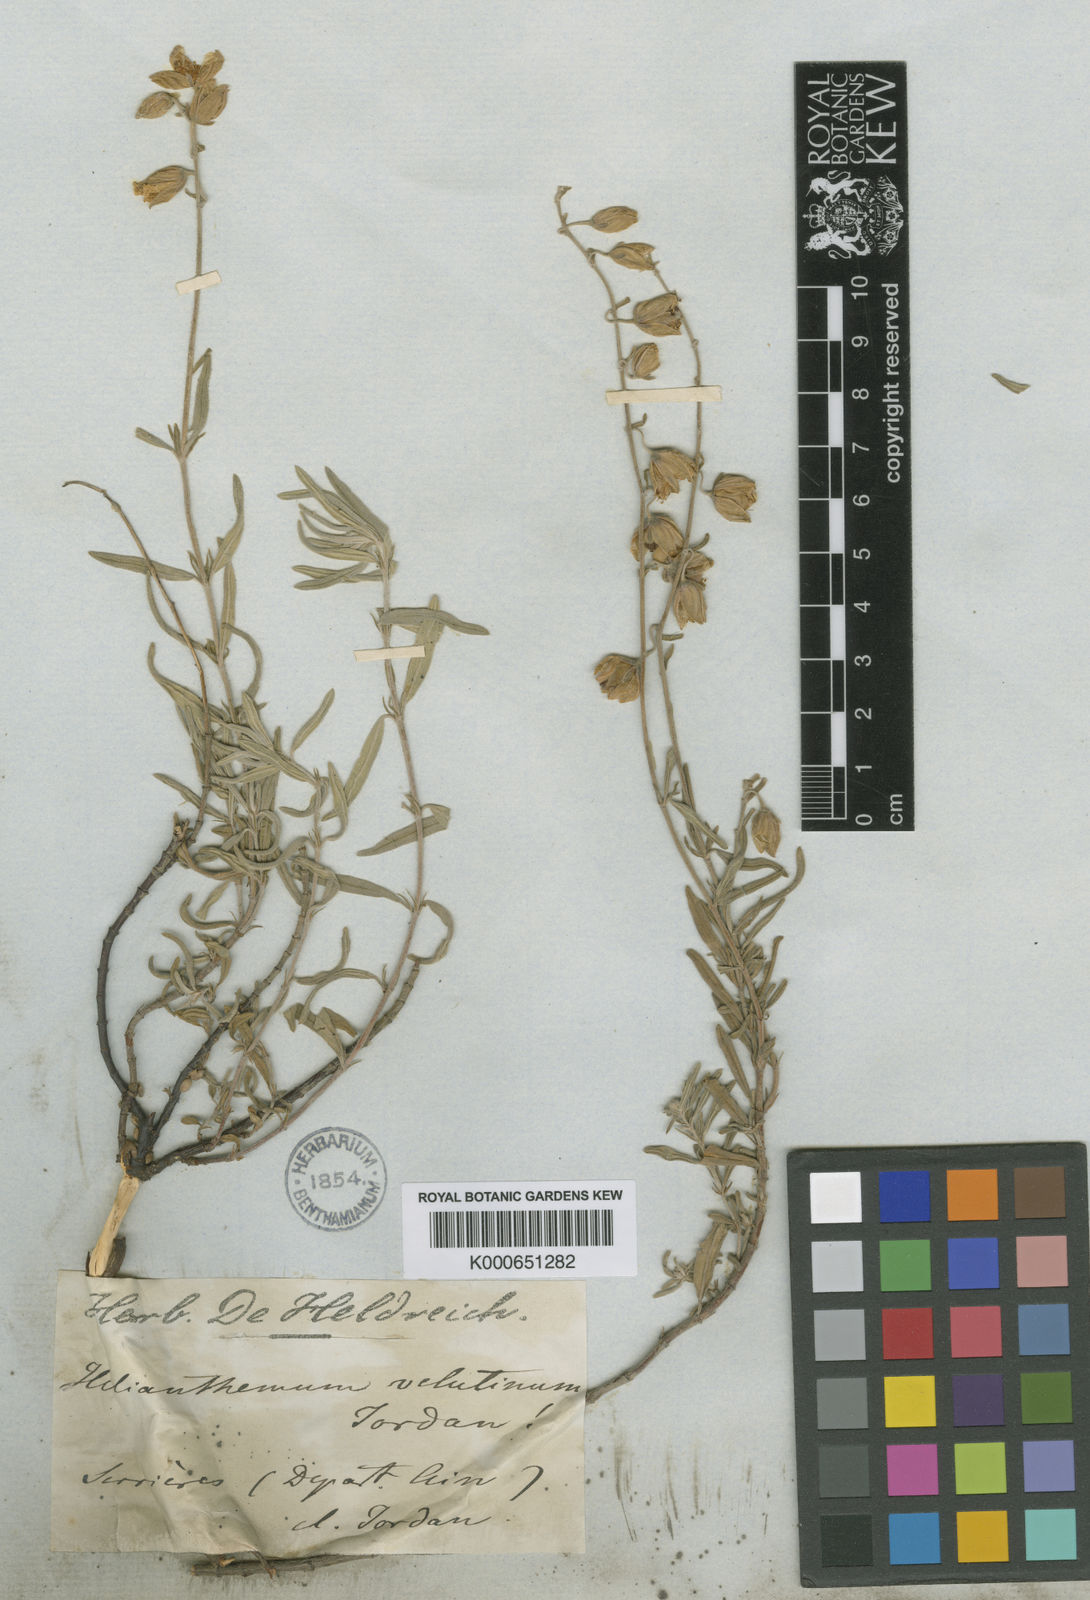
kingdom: Plantae
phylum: Tracheophyta
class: Magnoliopsida
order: Malvales
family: Cistaceae
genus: Helianthemum
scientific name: Helianthemum apenninum
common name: White rock-rose
